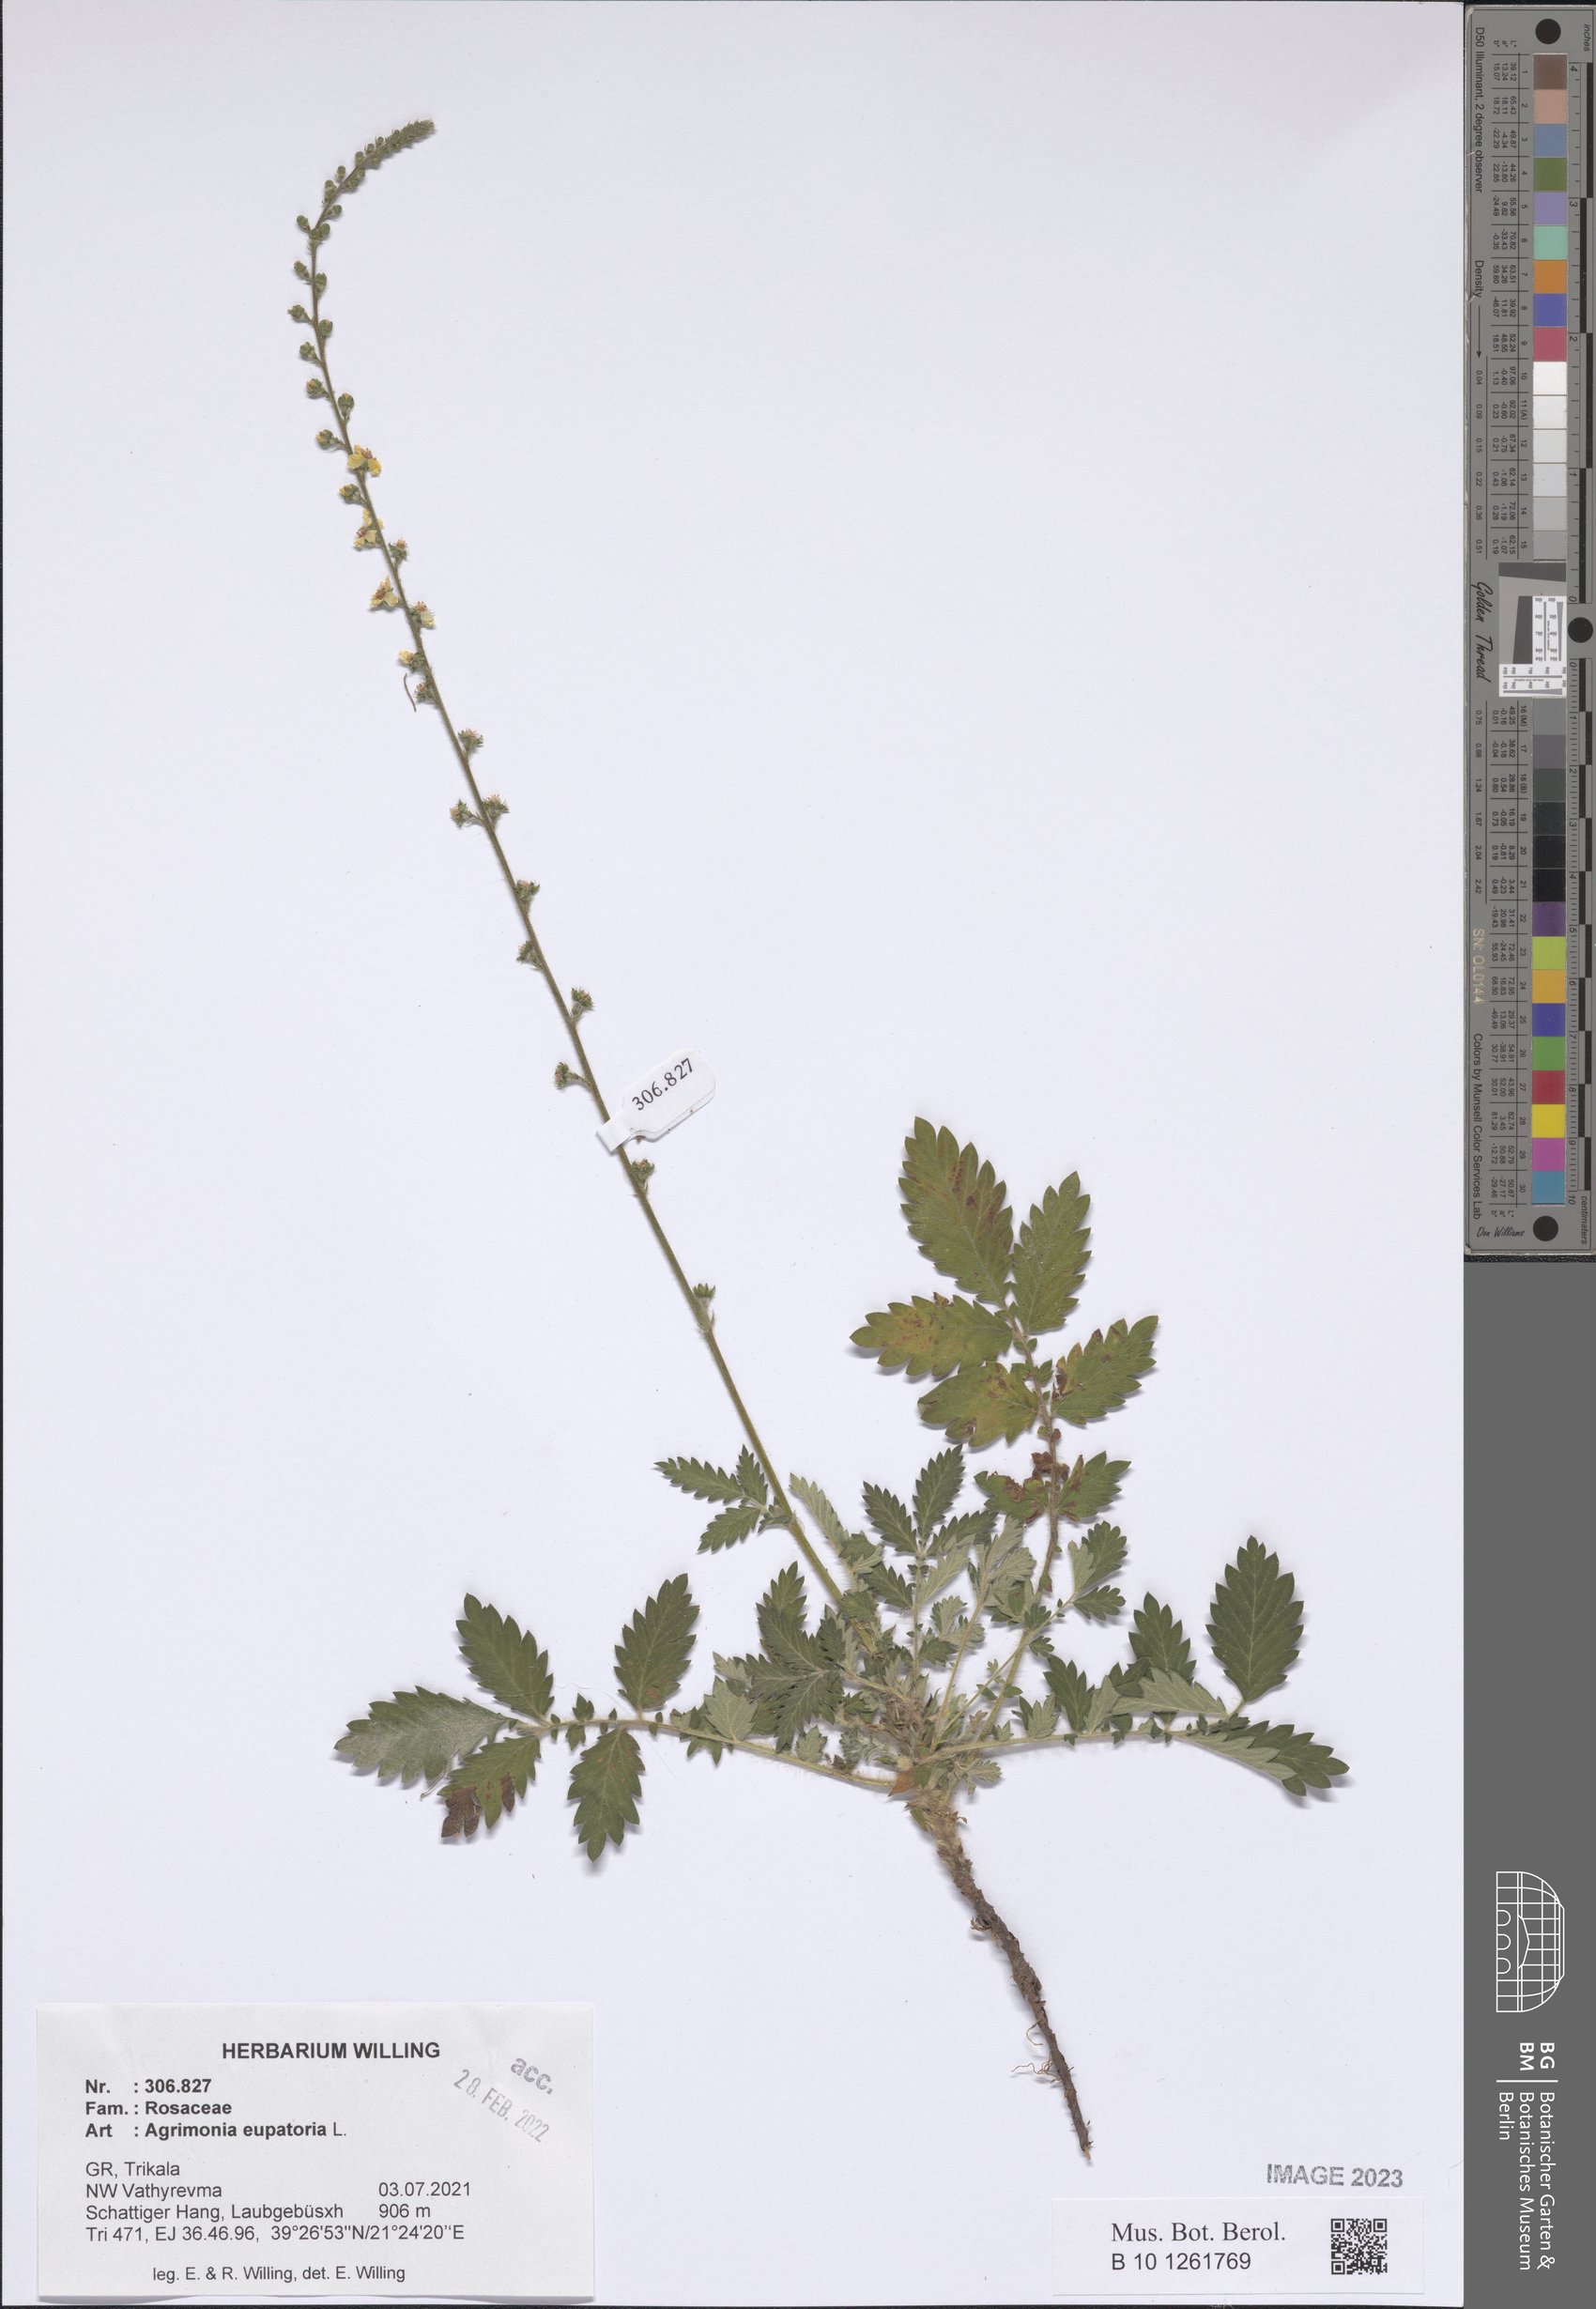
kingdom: Plantae
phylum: Tracheophyta
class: Magnoliopsida
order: Rosales
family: Rosaceae
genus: Agrimonia
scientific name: Agrimonia eupatoria
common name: Agrimony
